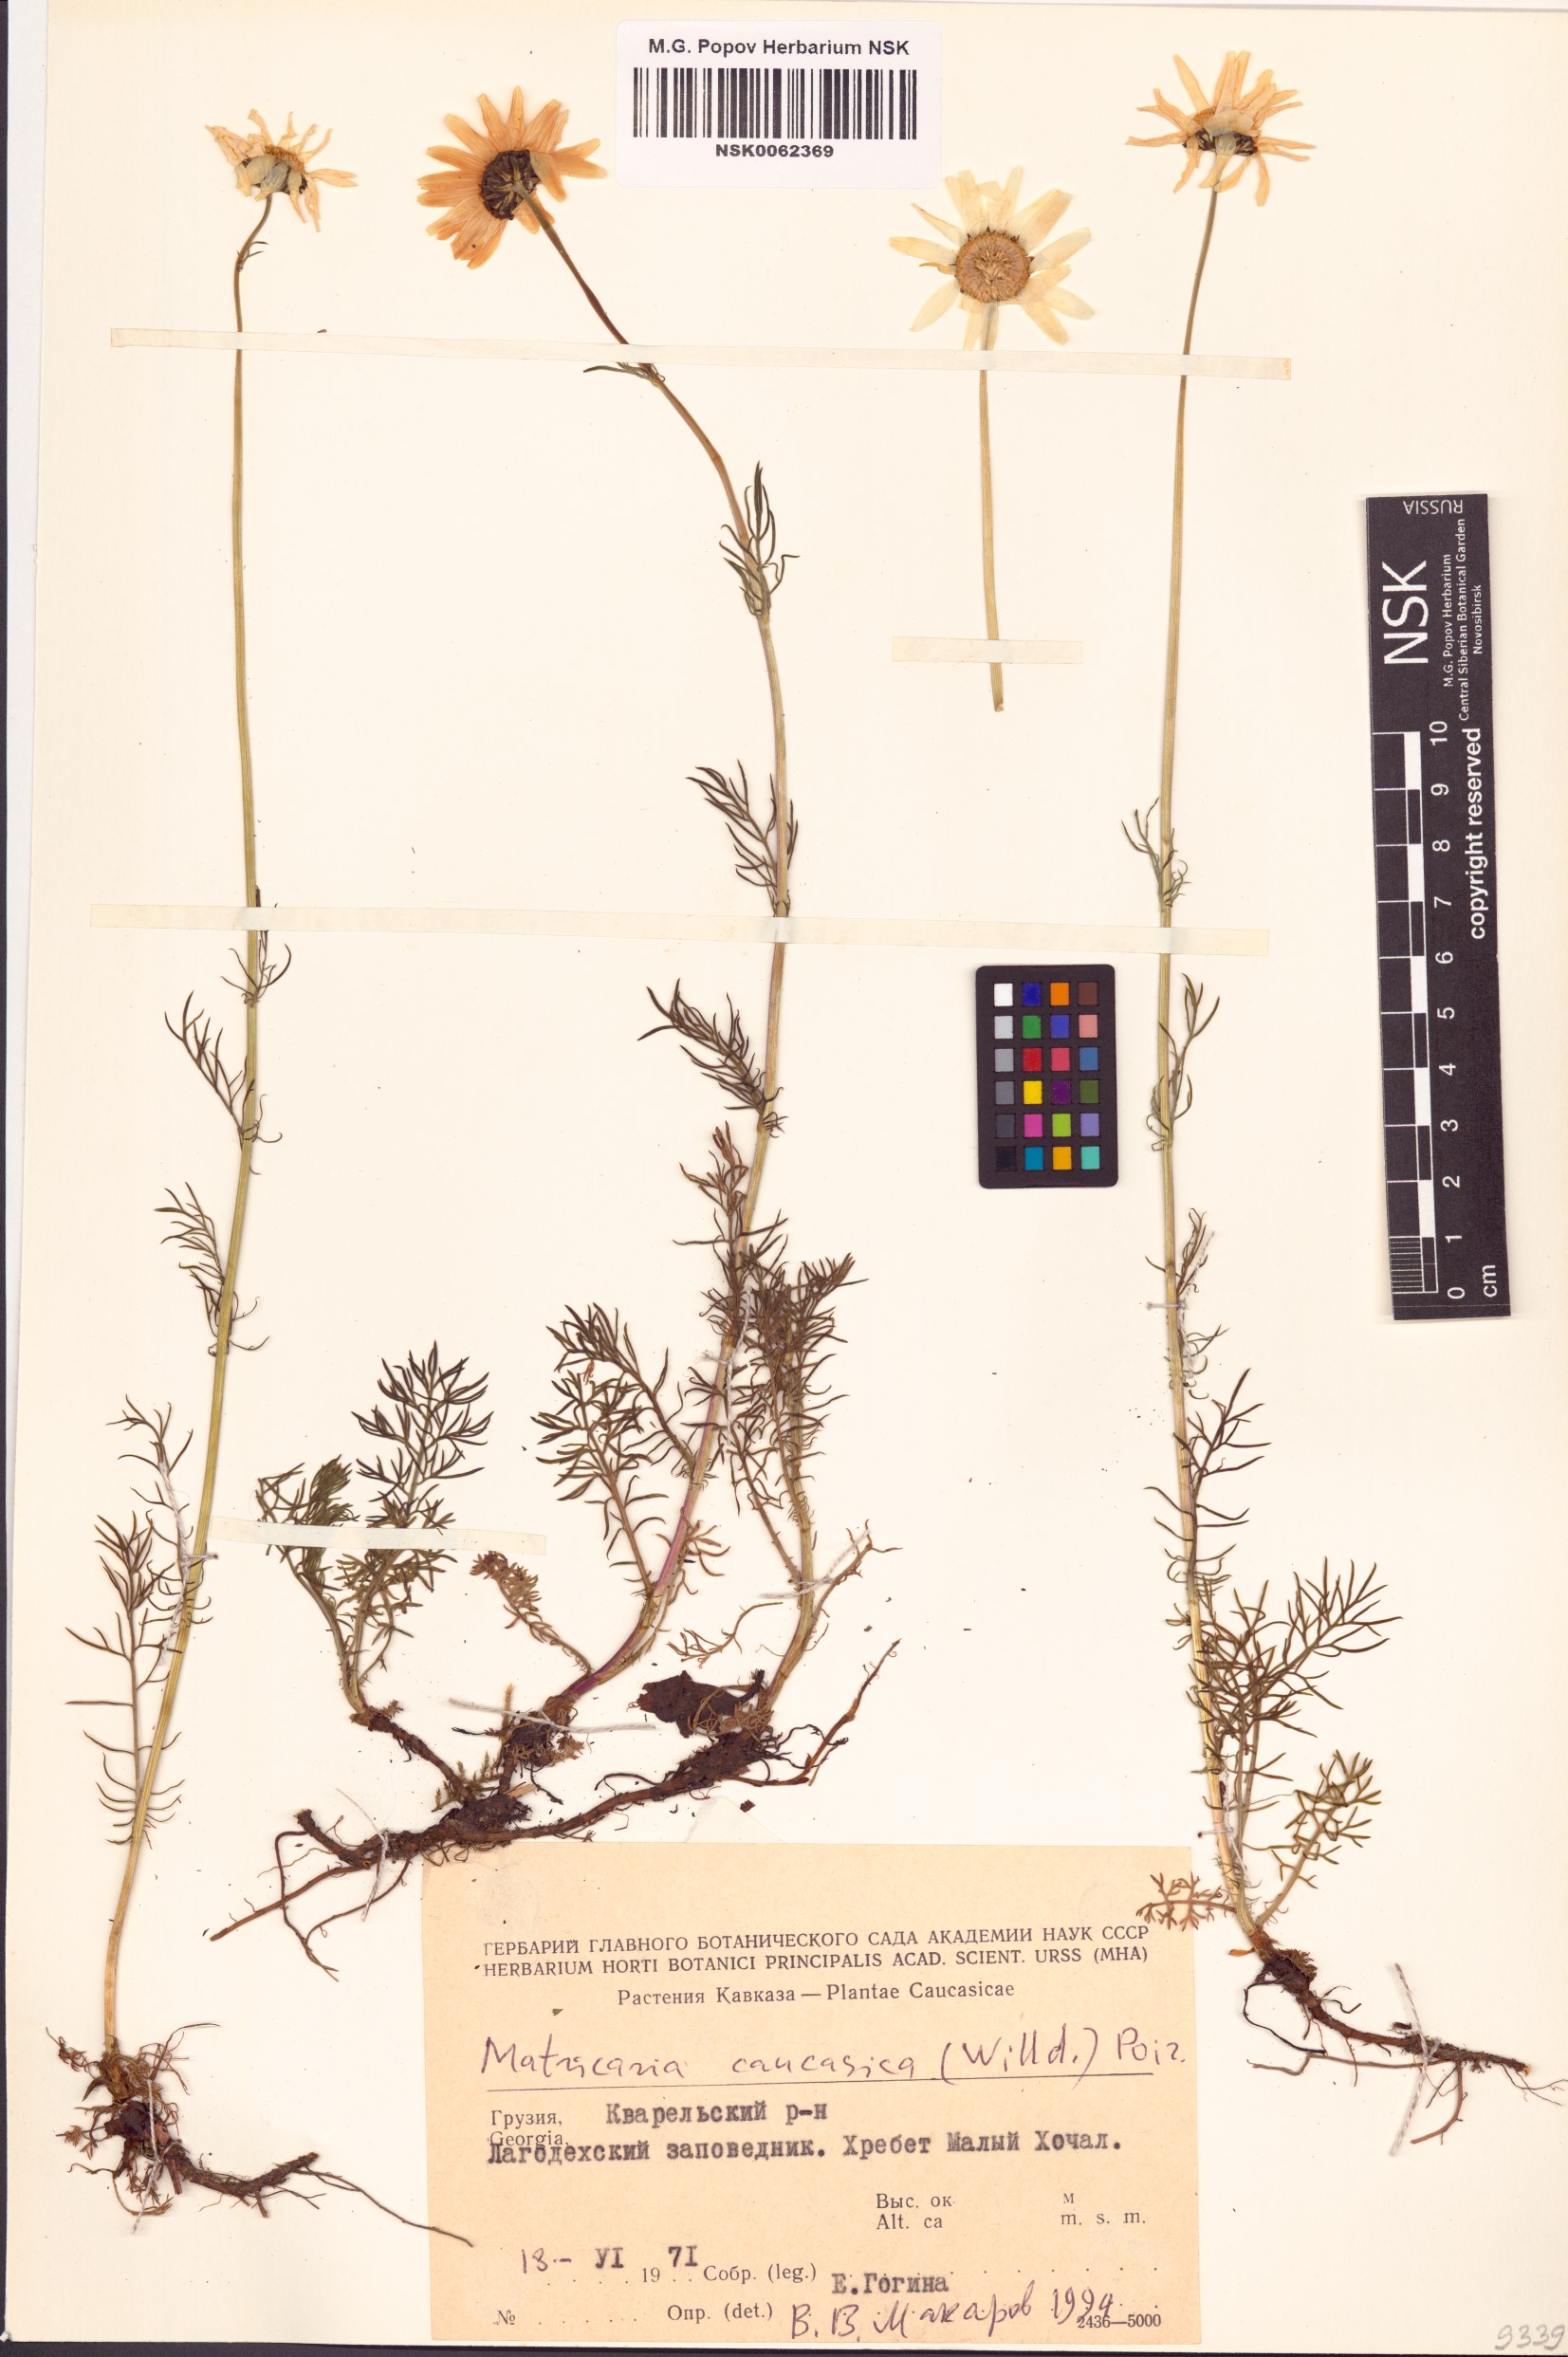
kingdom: Plantae
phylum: Tracheophyta
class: Magnoliopsida
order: Asterales
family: Asteraceae
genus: Tripleurospermum
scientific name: Tripleurospermum caucasicum
